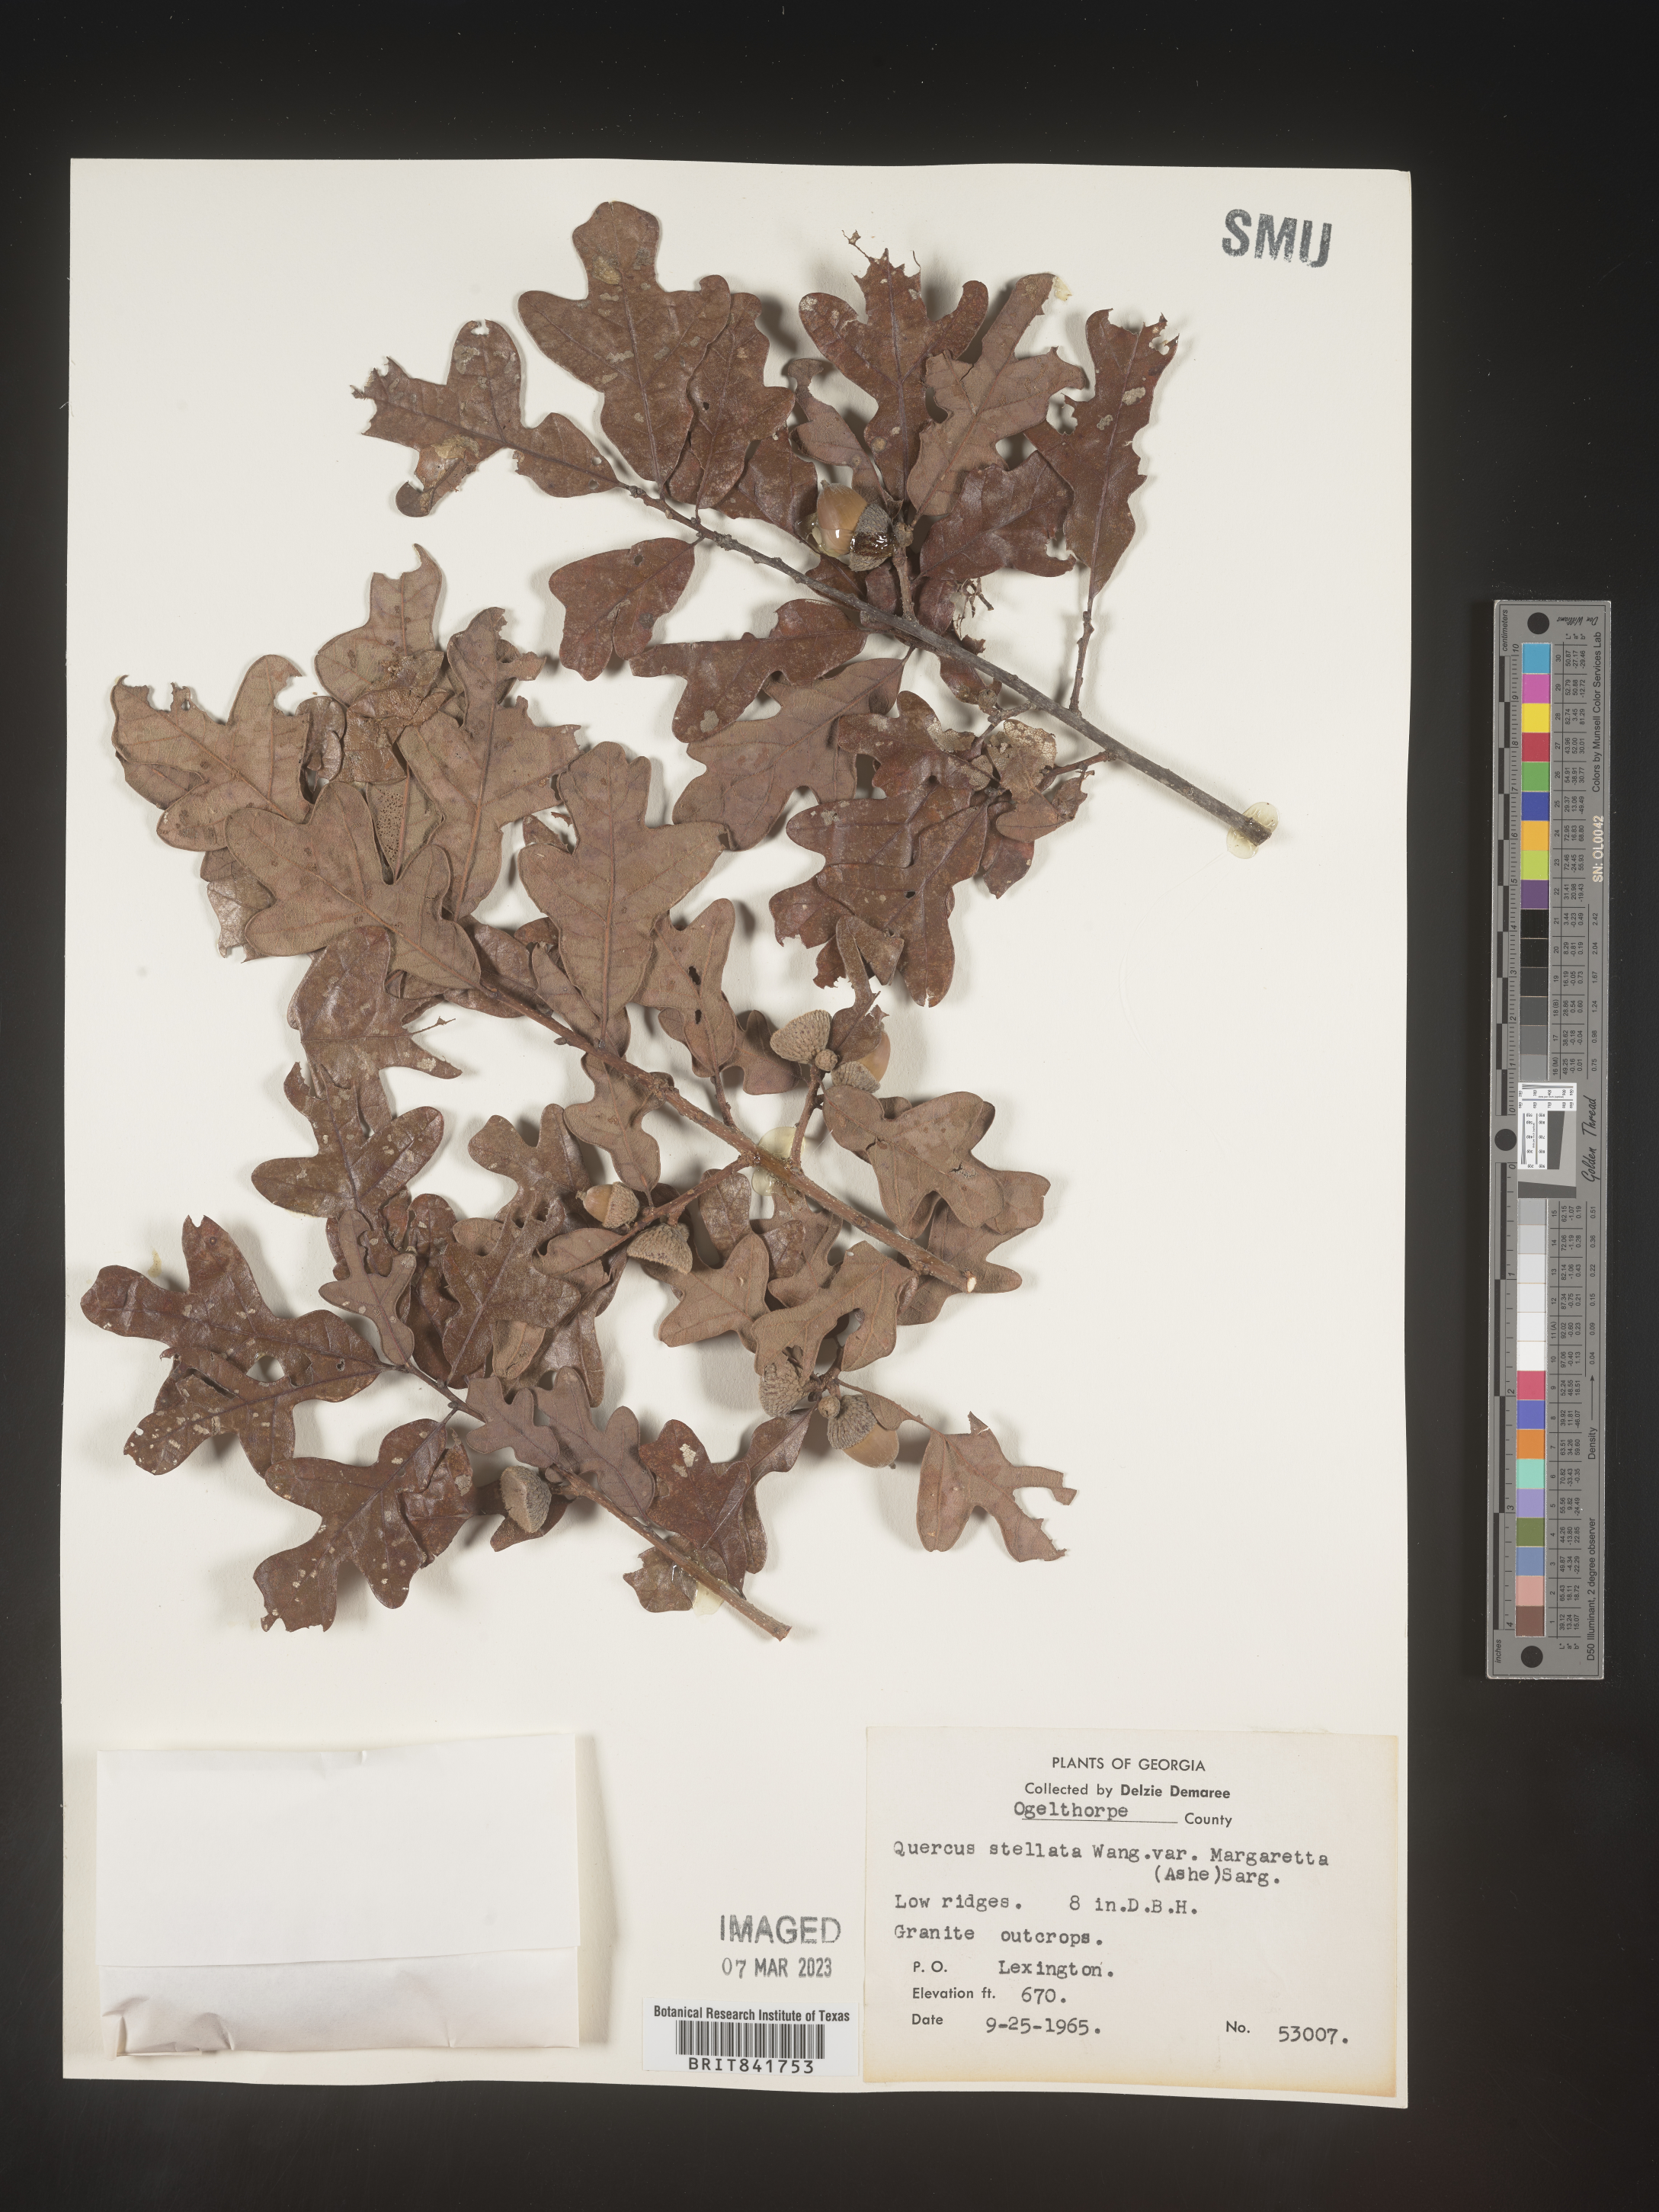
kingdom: Plantae
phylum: Tracheophyta
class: Magnoliopsida
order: Fagales
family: Fagaceae
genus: Quercus
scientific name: Quercus stellata
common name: Post oak
